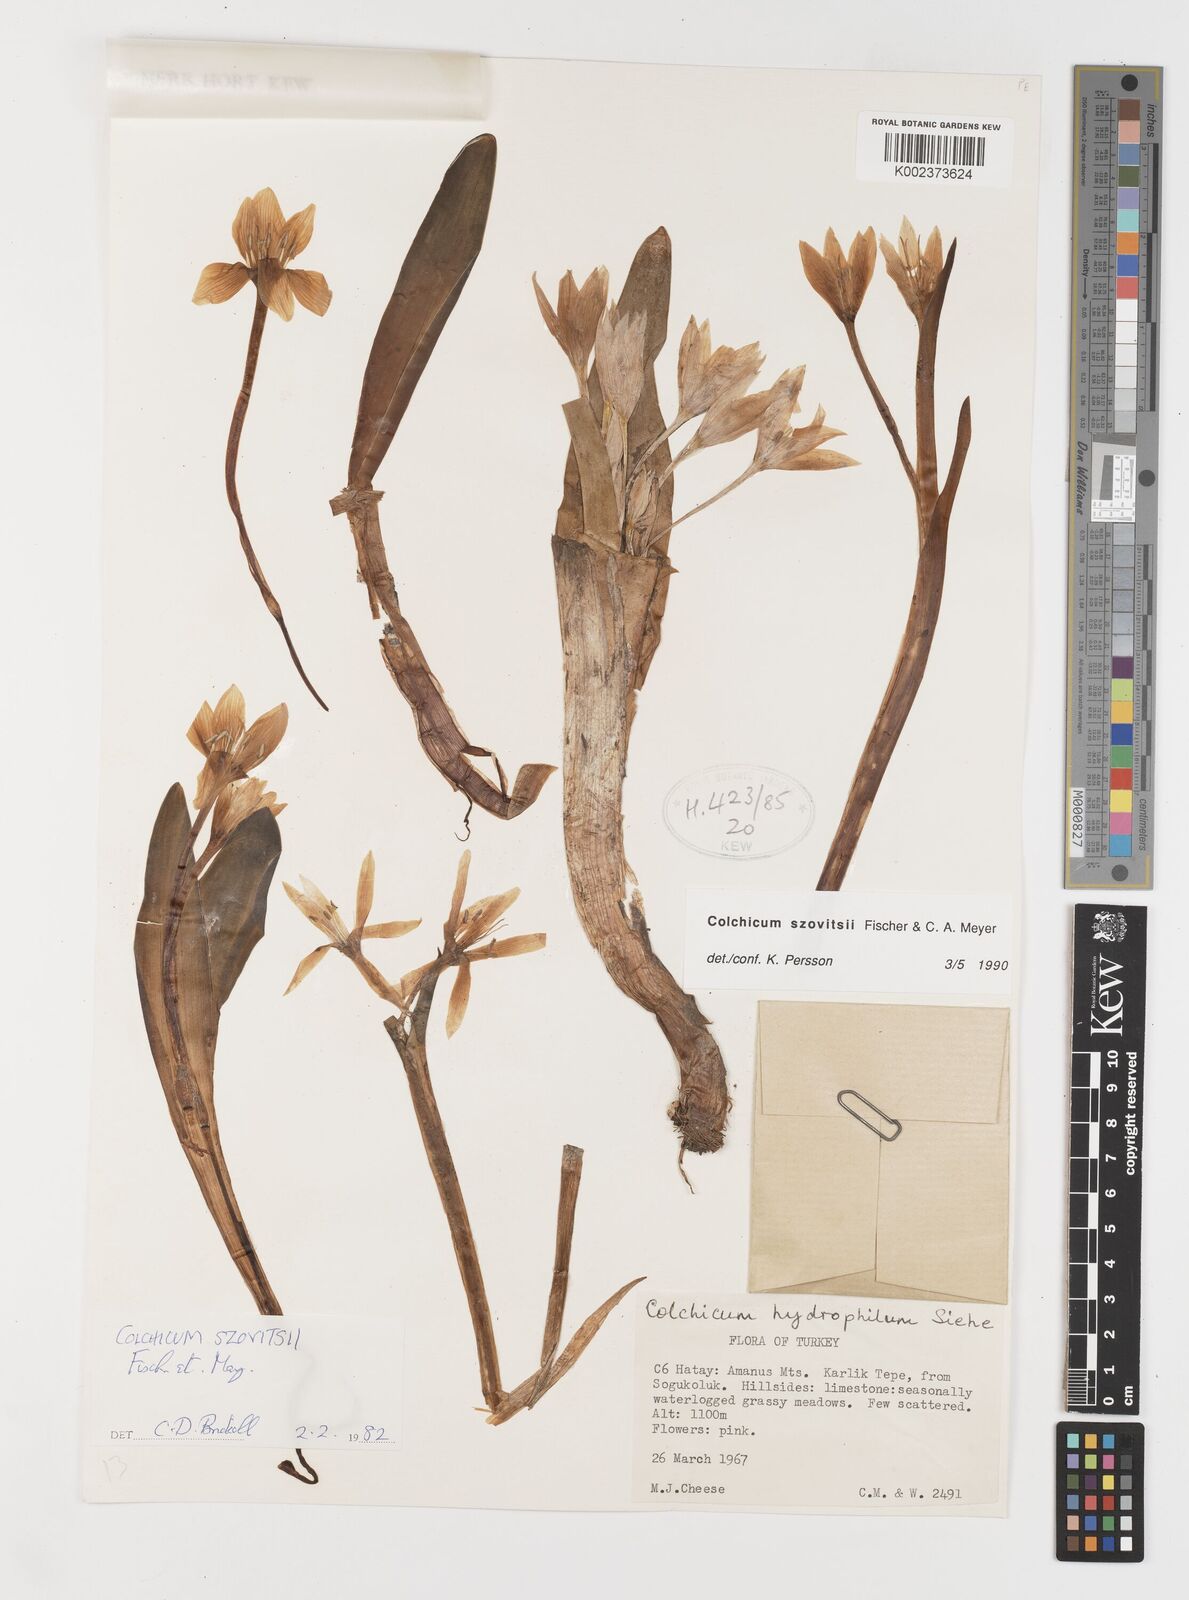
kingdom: Plantae
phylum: Tracheophyta
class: Liliopsida
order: Liliales
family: Colchicaceae
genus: Colchicum
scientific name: Colchicum szovitsii
